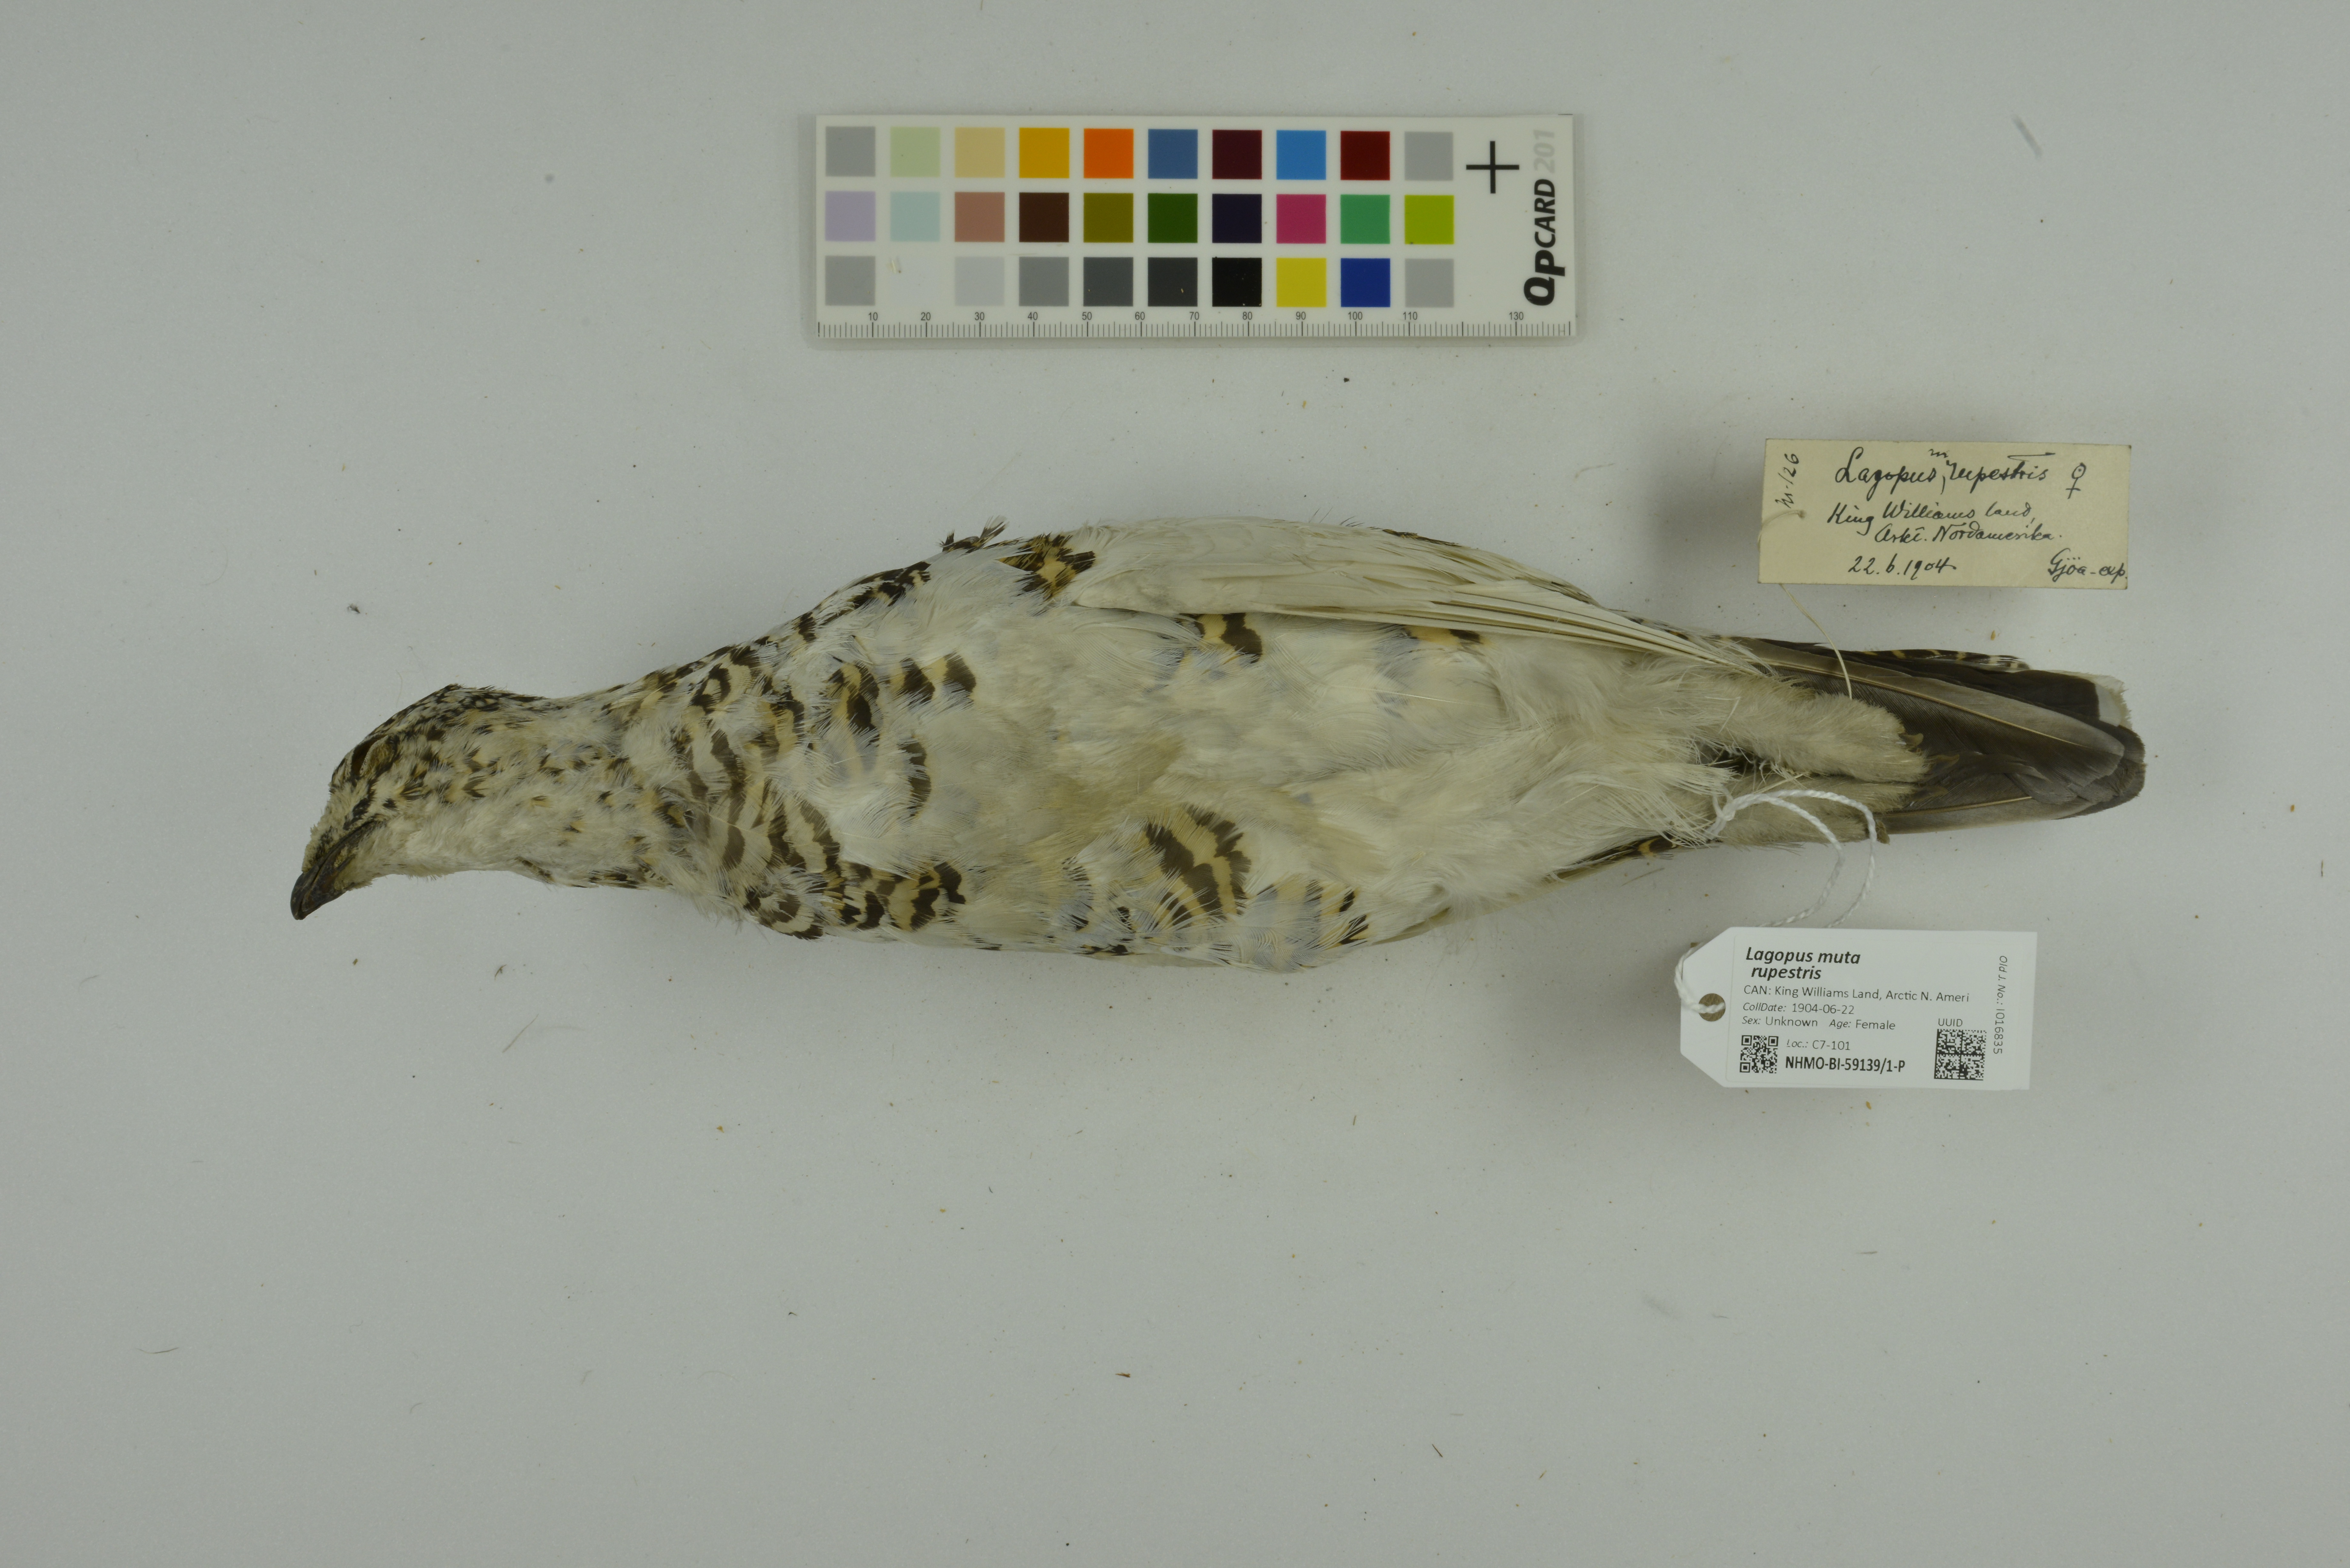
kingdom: Animalia
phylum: Chordata
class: Aves
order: Galliformes
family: Phasianidae
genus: Lagopus
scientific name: Lagopus muta
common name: Rock ptarmigan
